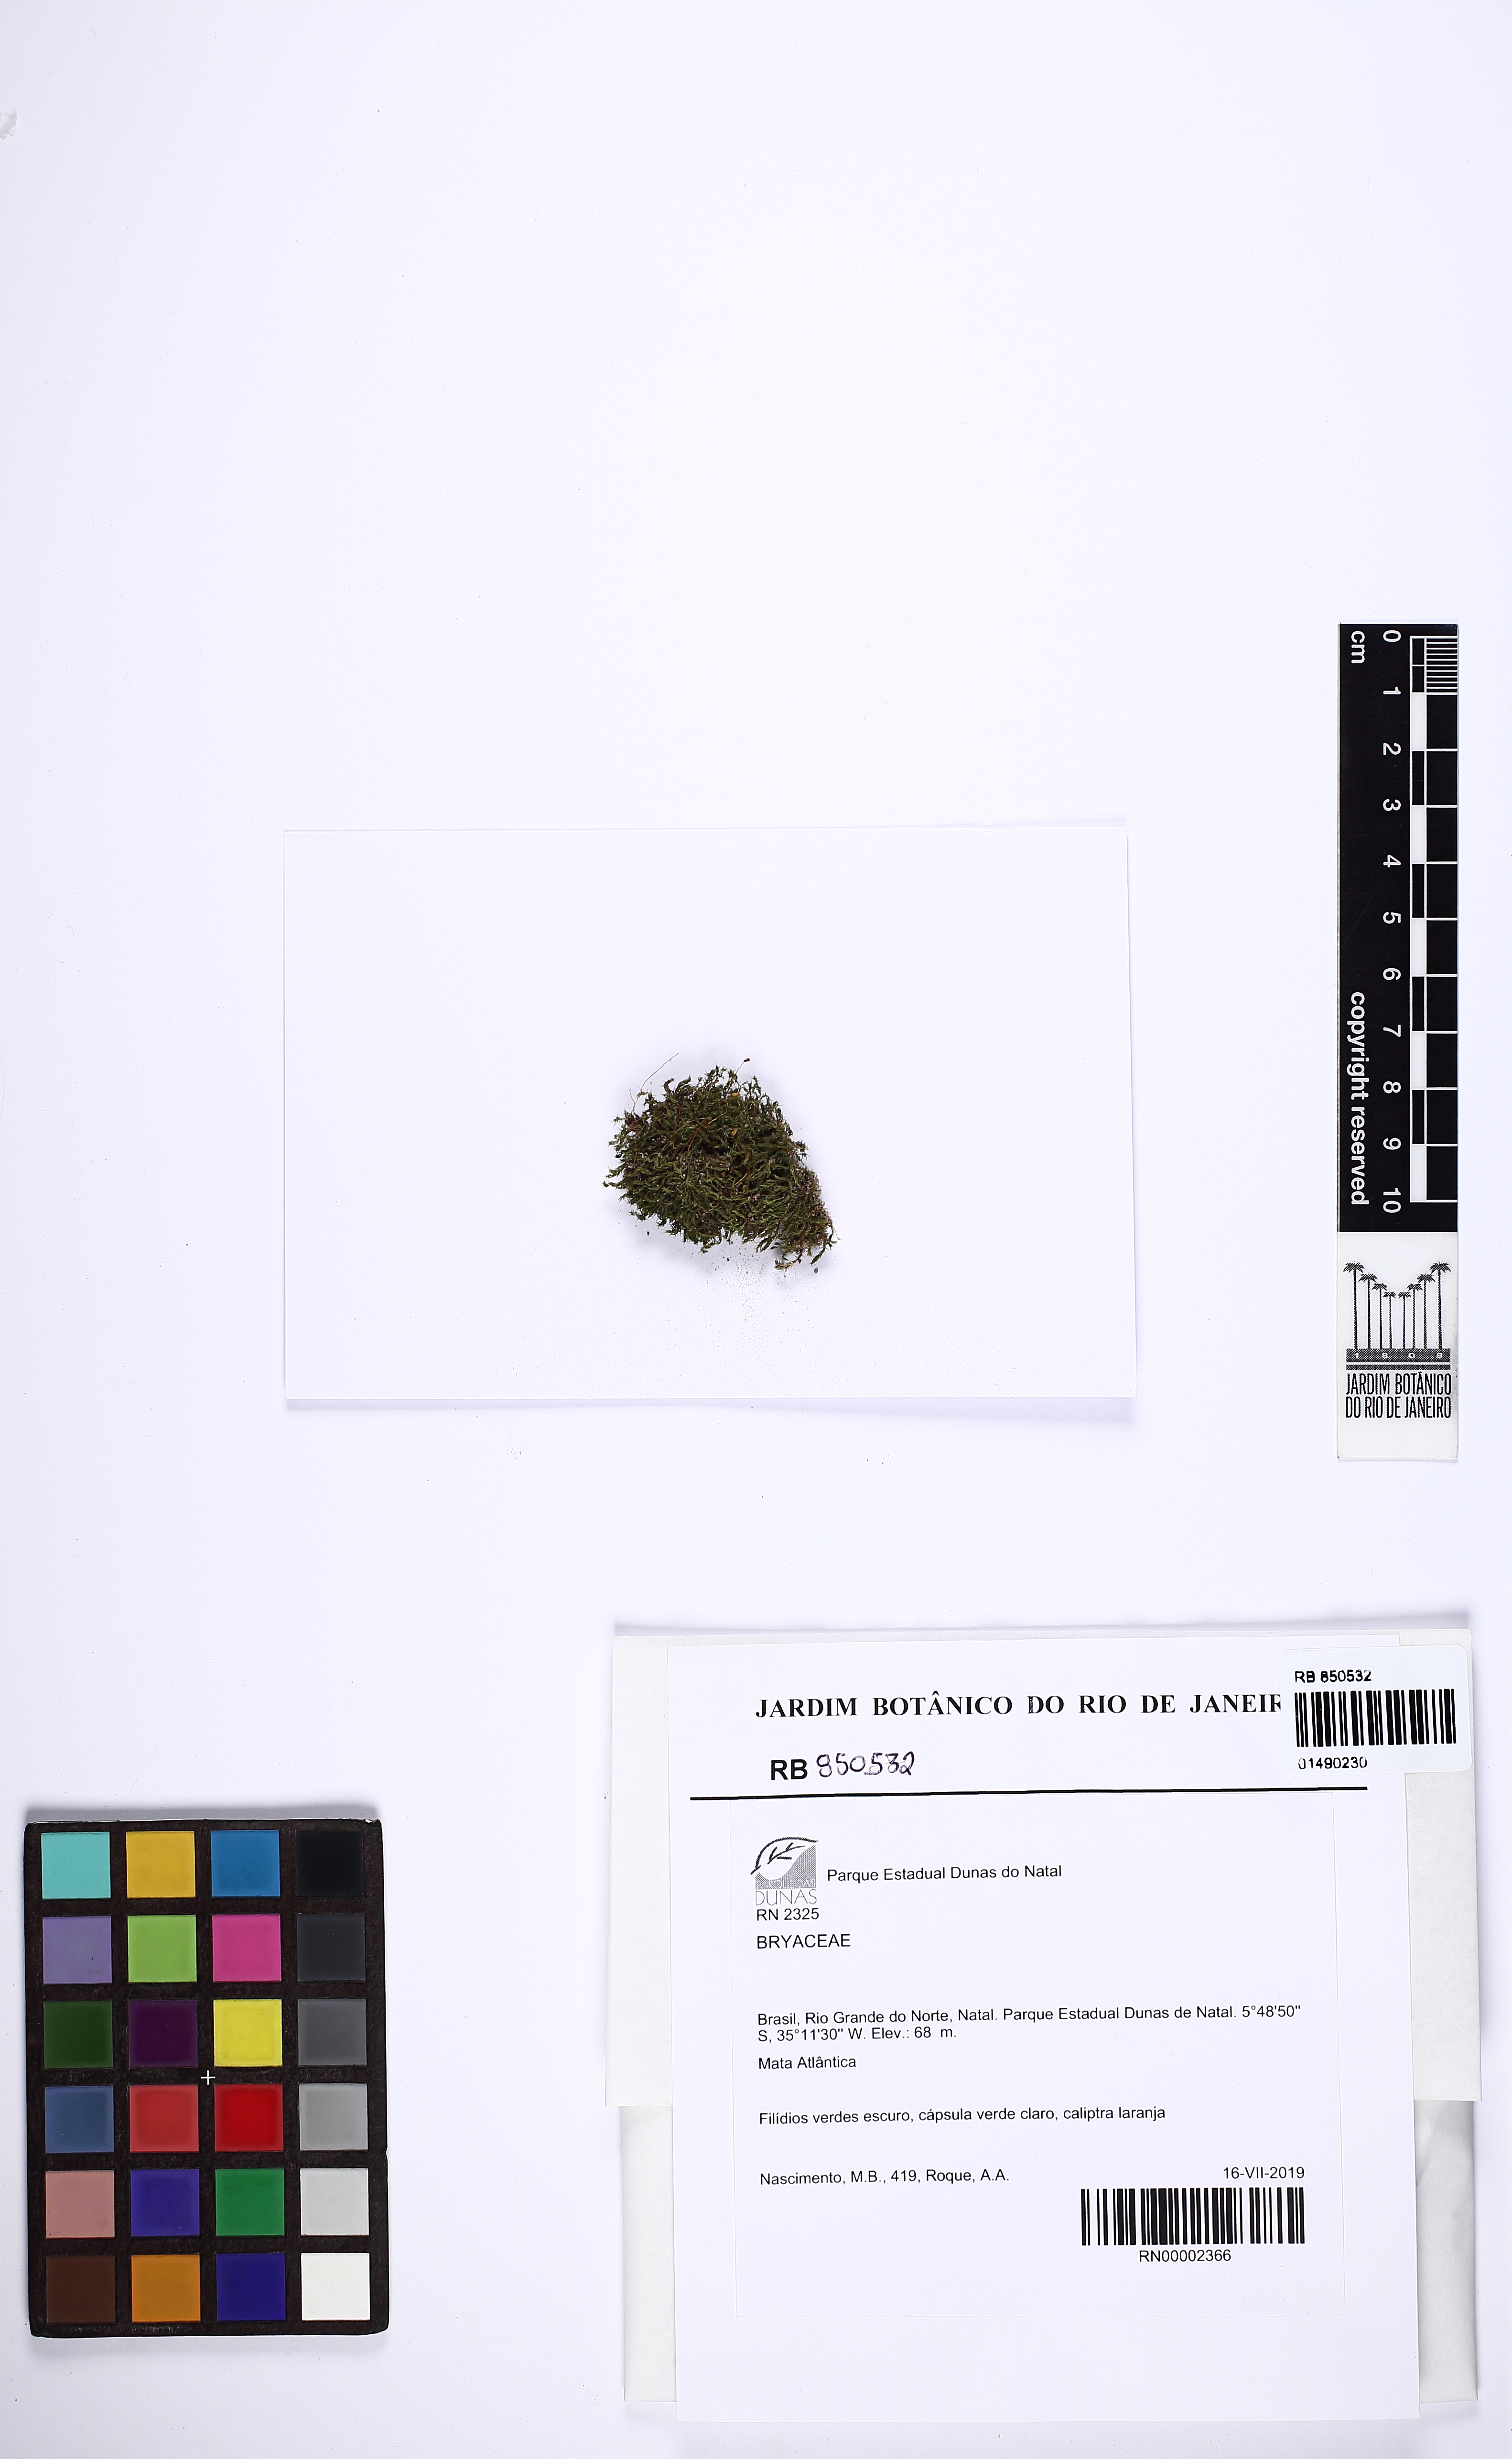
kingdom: Plantae
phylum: Bryophyta
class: Bryopsida
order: Bryales
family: Bryaceae
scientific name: Bryaceae
